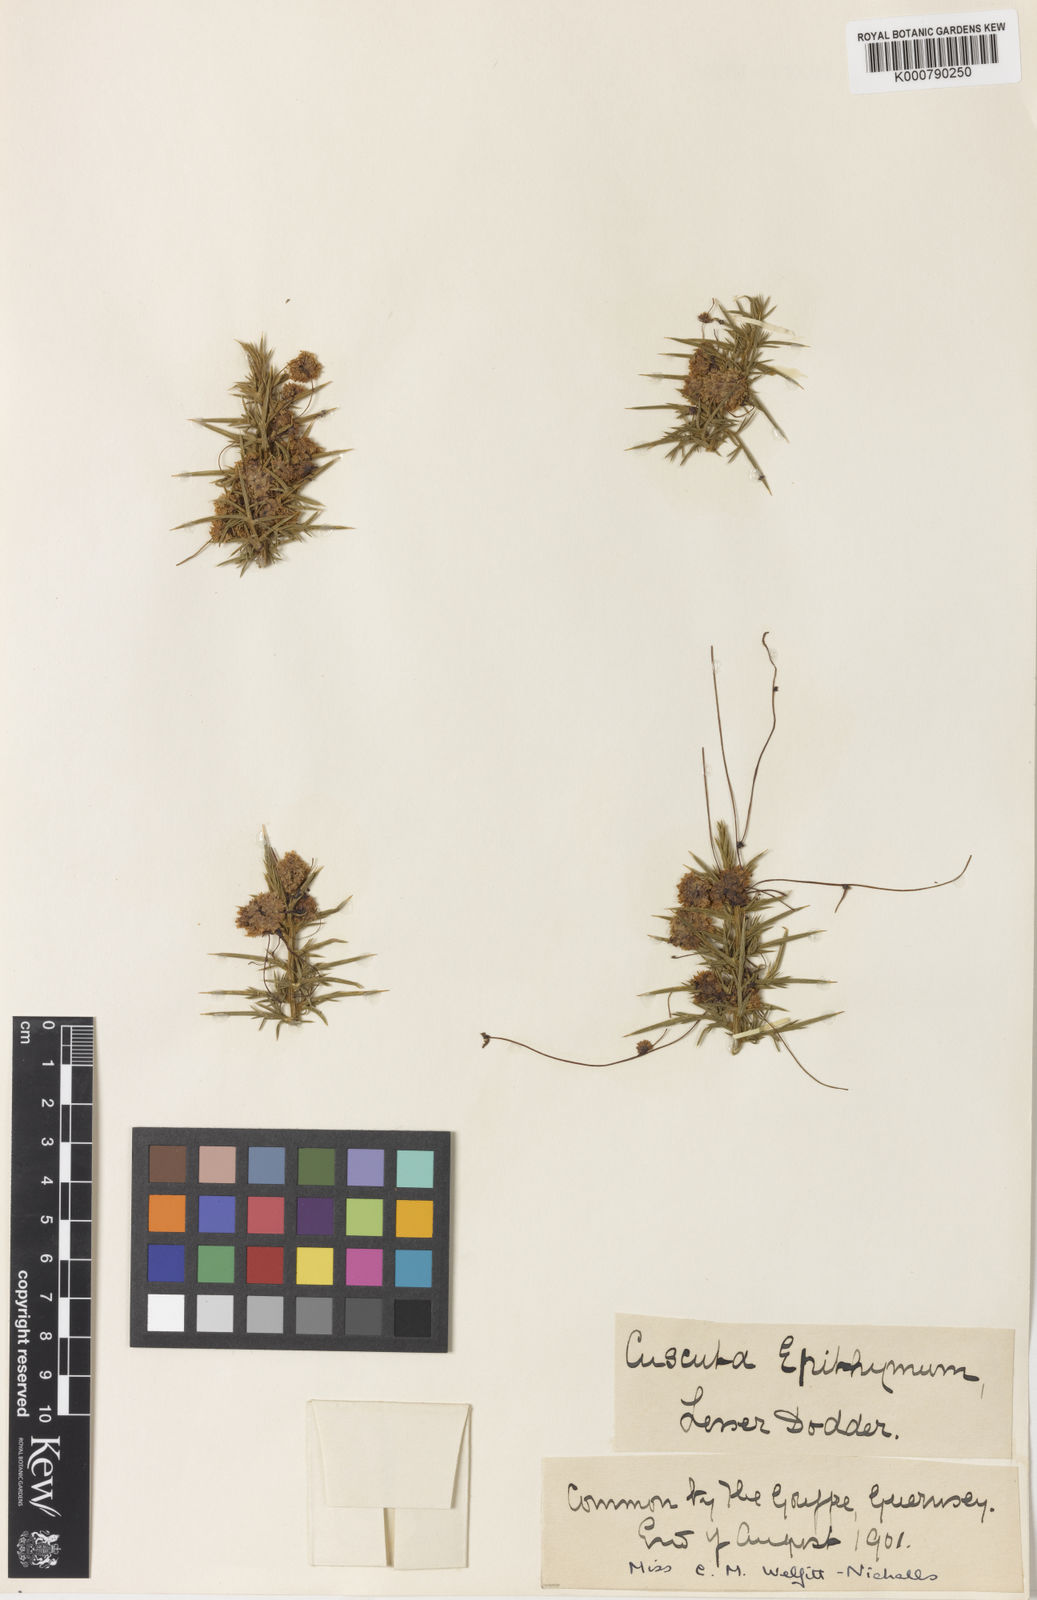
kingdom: Plantae
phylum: Tracheophyta
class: Magnoliopsida
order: Solanales
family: Convolvulaceae
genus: Cuscuta
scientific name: Cuscuta epithymum
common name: Clover dodder
